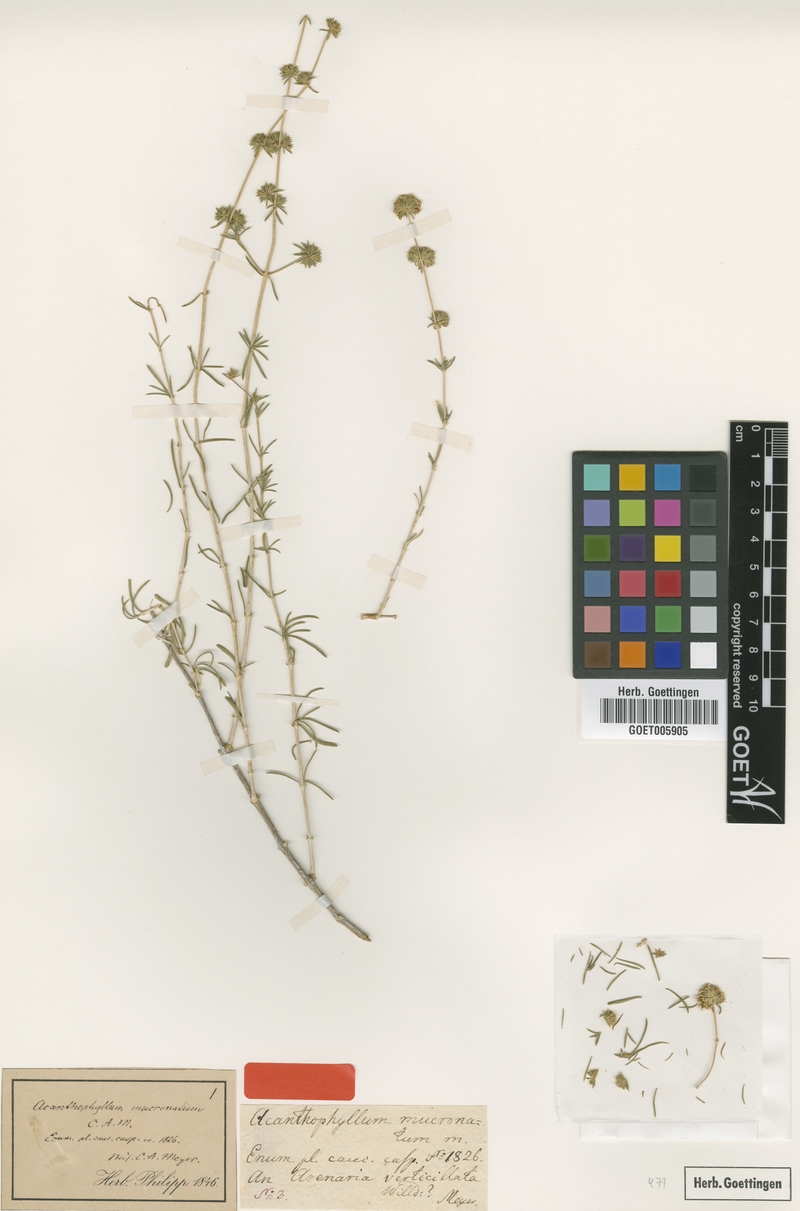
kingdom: Plantae
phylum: Tracheophyta
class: Magnoliopsida
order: Caryophyllales
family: Caryophyllaceae
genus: Acanthophyllum
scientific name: Acanthophyllum mucronatum
